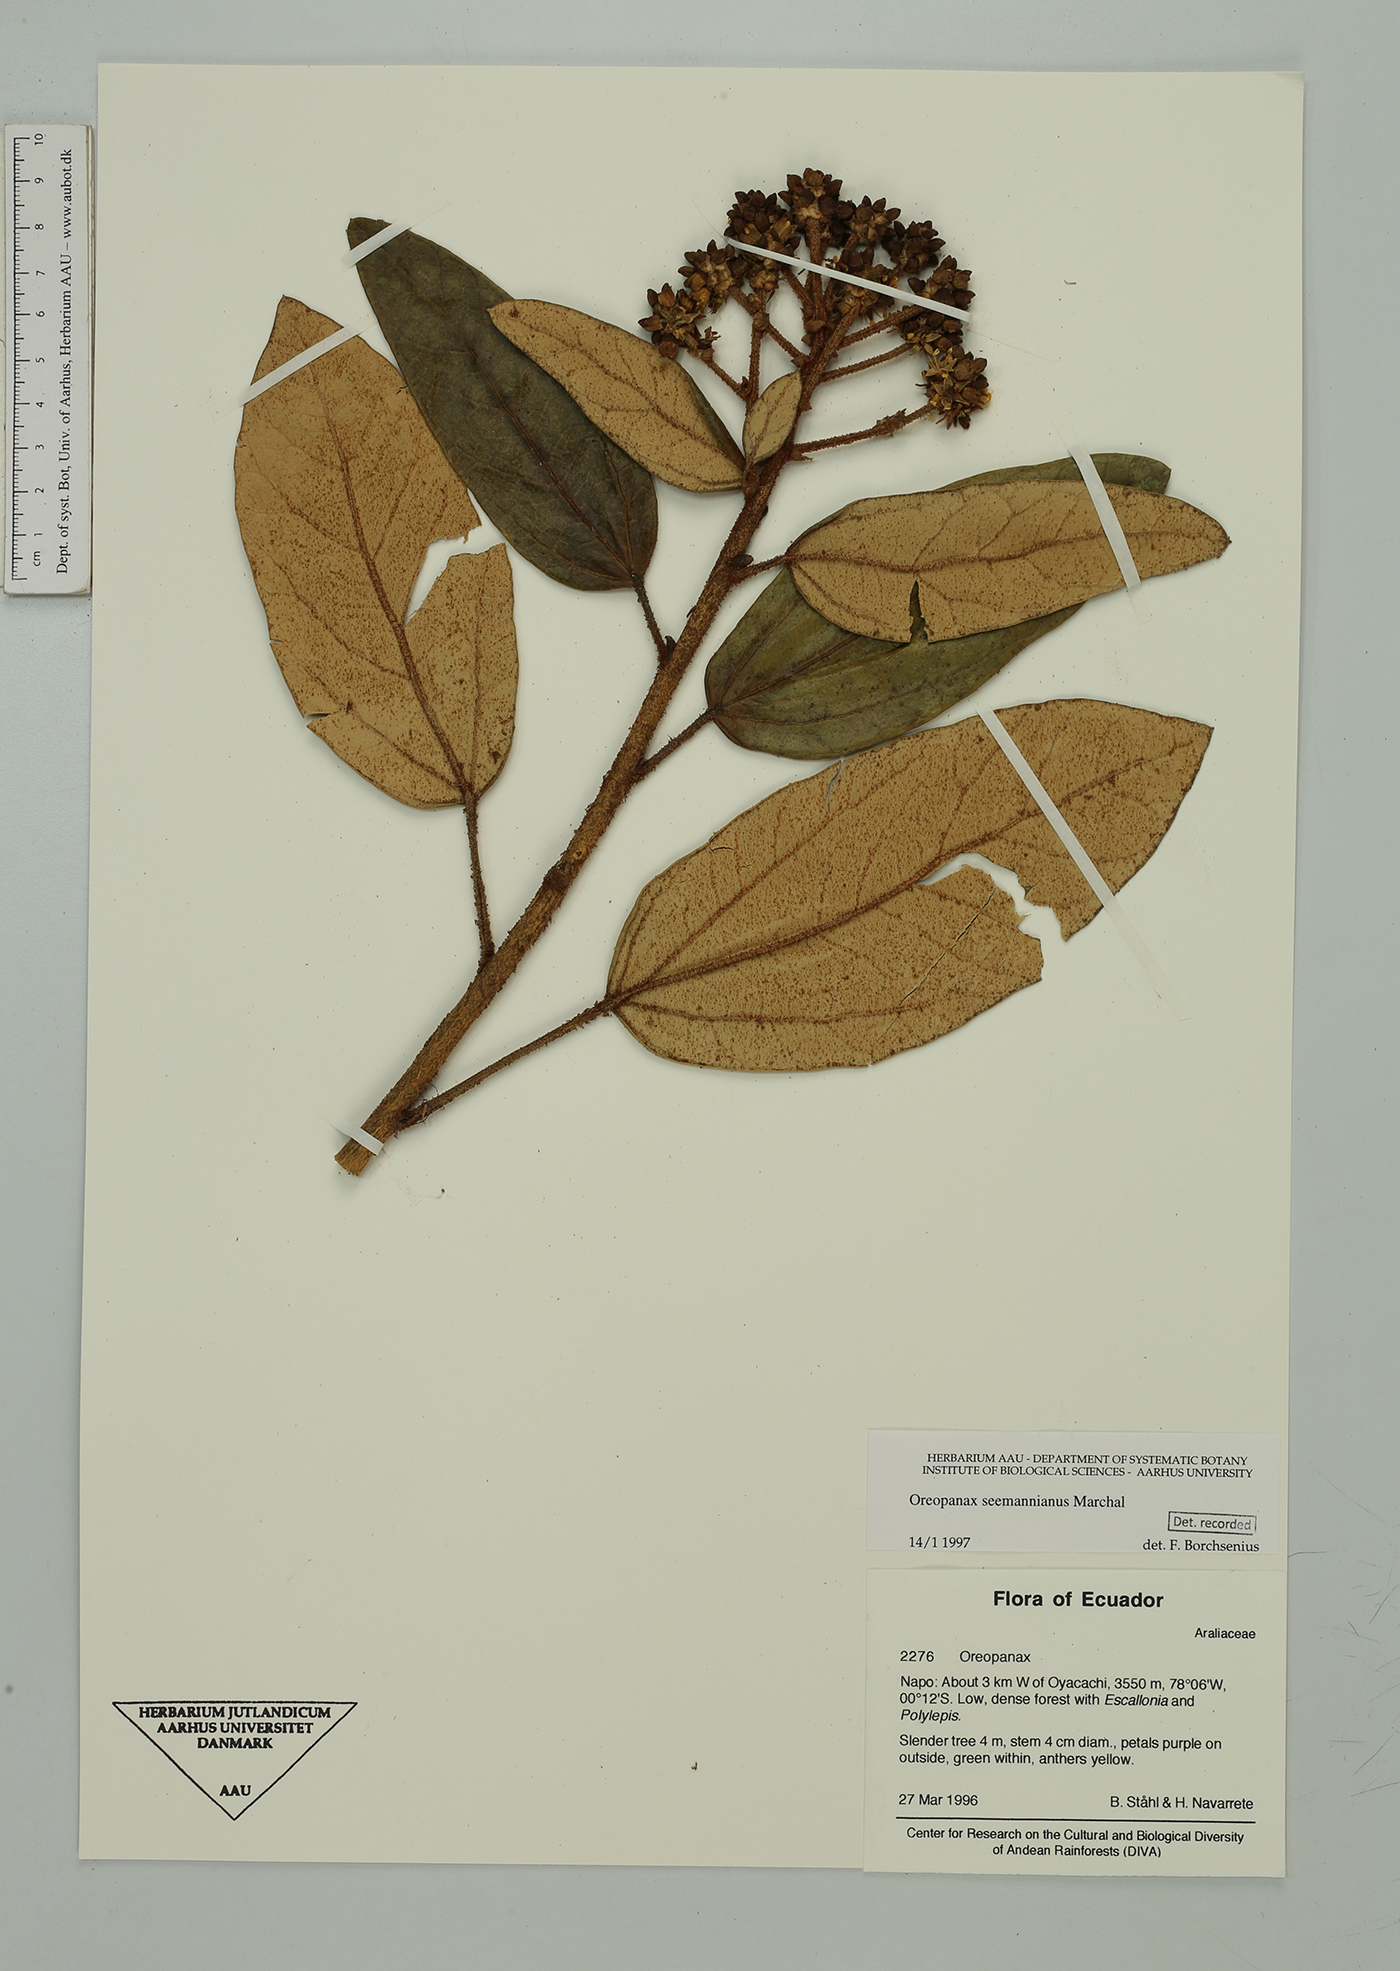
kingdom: Plantae
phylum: Tracheophyta
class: Magnoliopsida
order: Apiales
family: Araliaceae
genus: Oreopanax
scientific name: Oreopanax seemannianus
